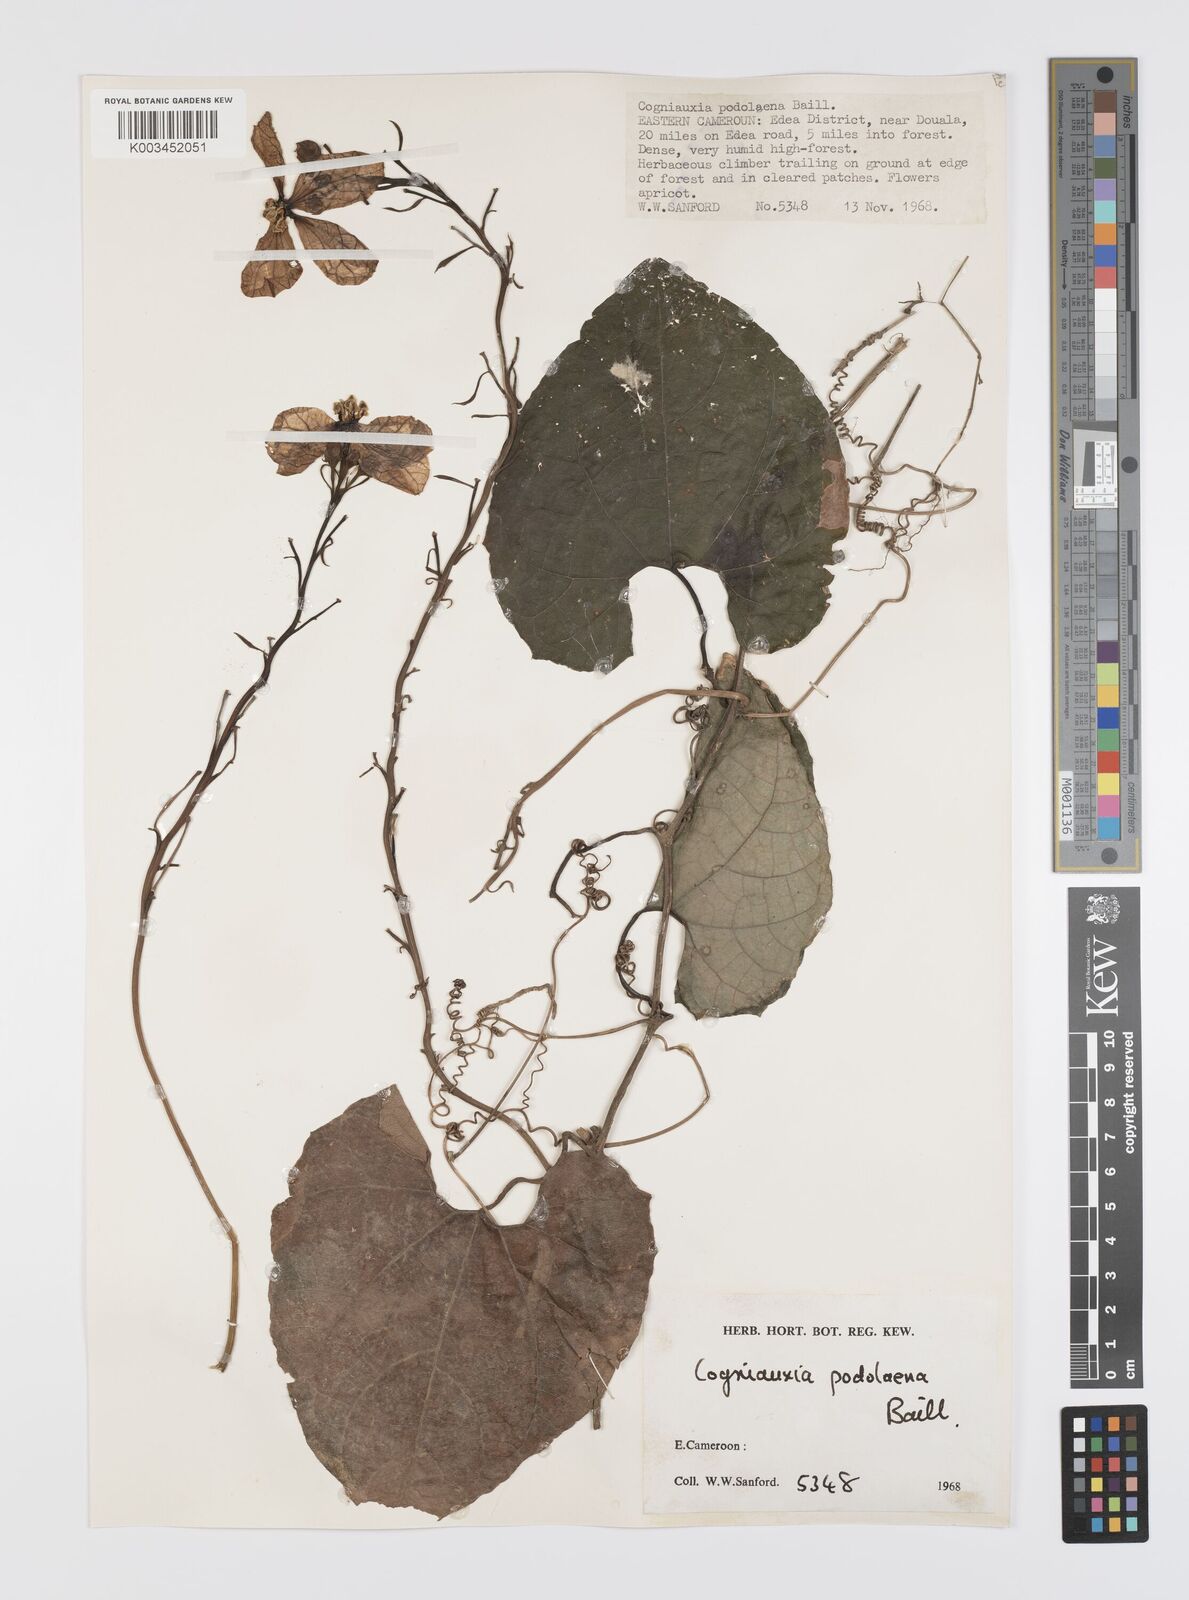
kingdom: Plantae
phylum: Tracheophyta
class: Magnoliopsida
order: Cucurbitales
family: Cucurbitaceae
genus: Cogniauxia
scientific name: Cogniauxia podolaena
